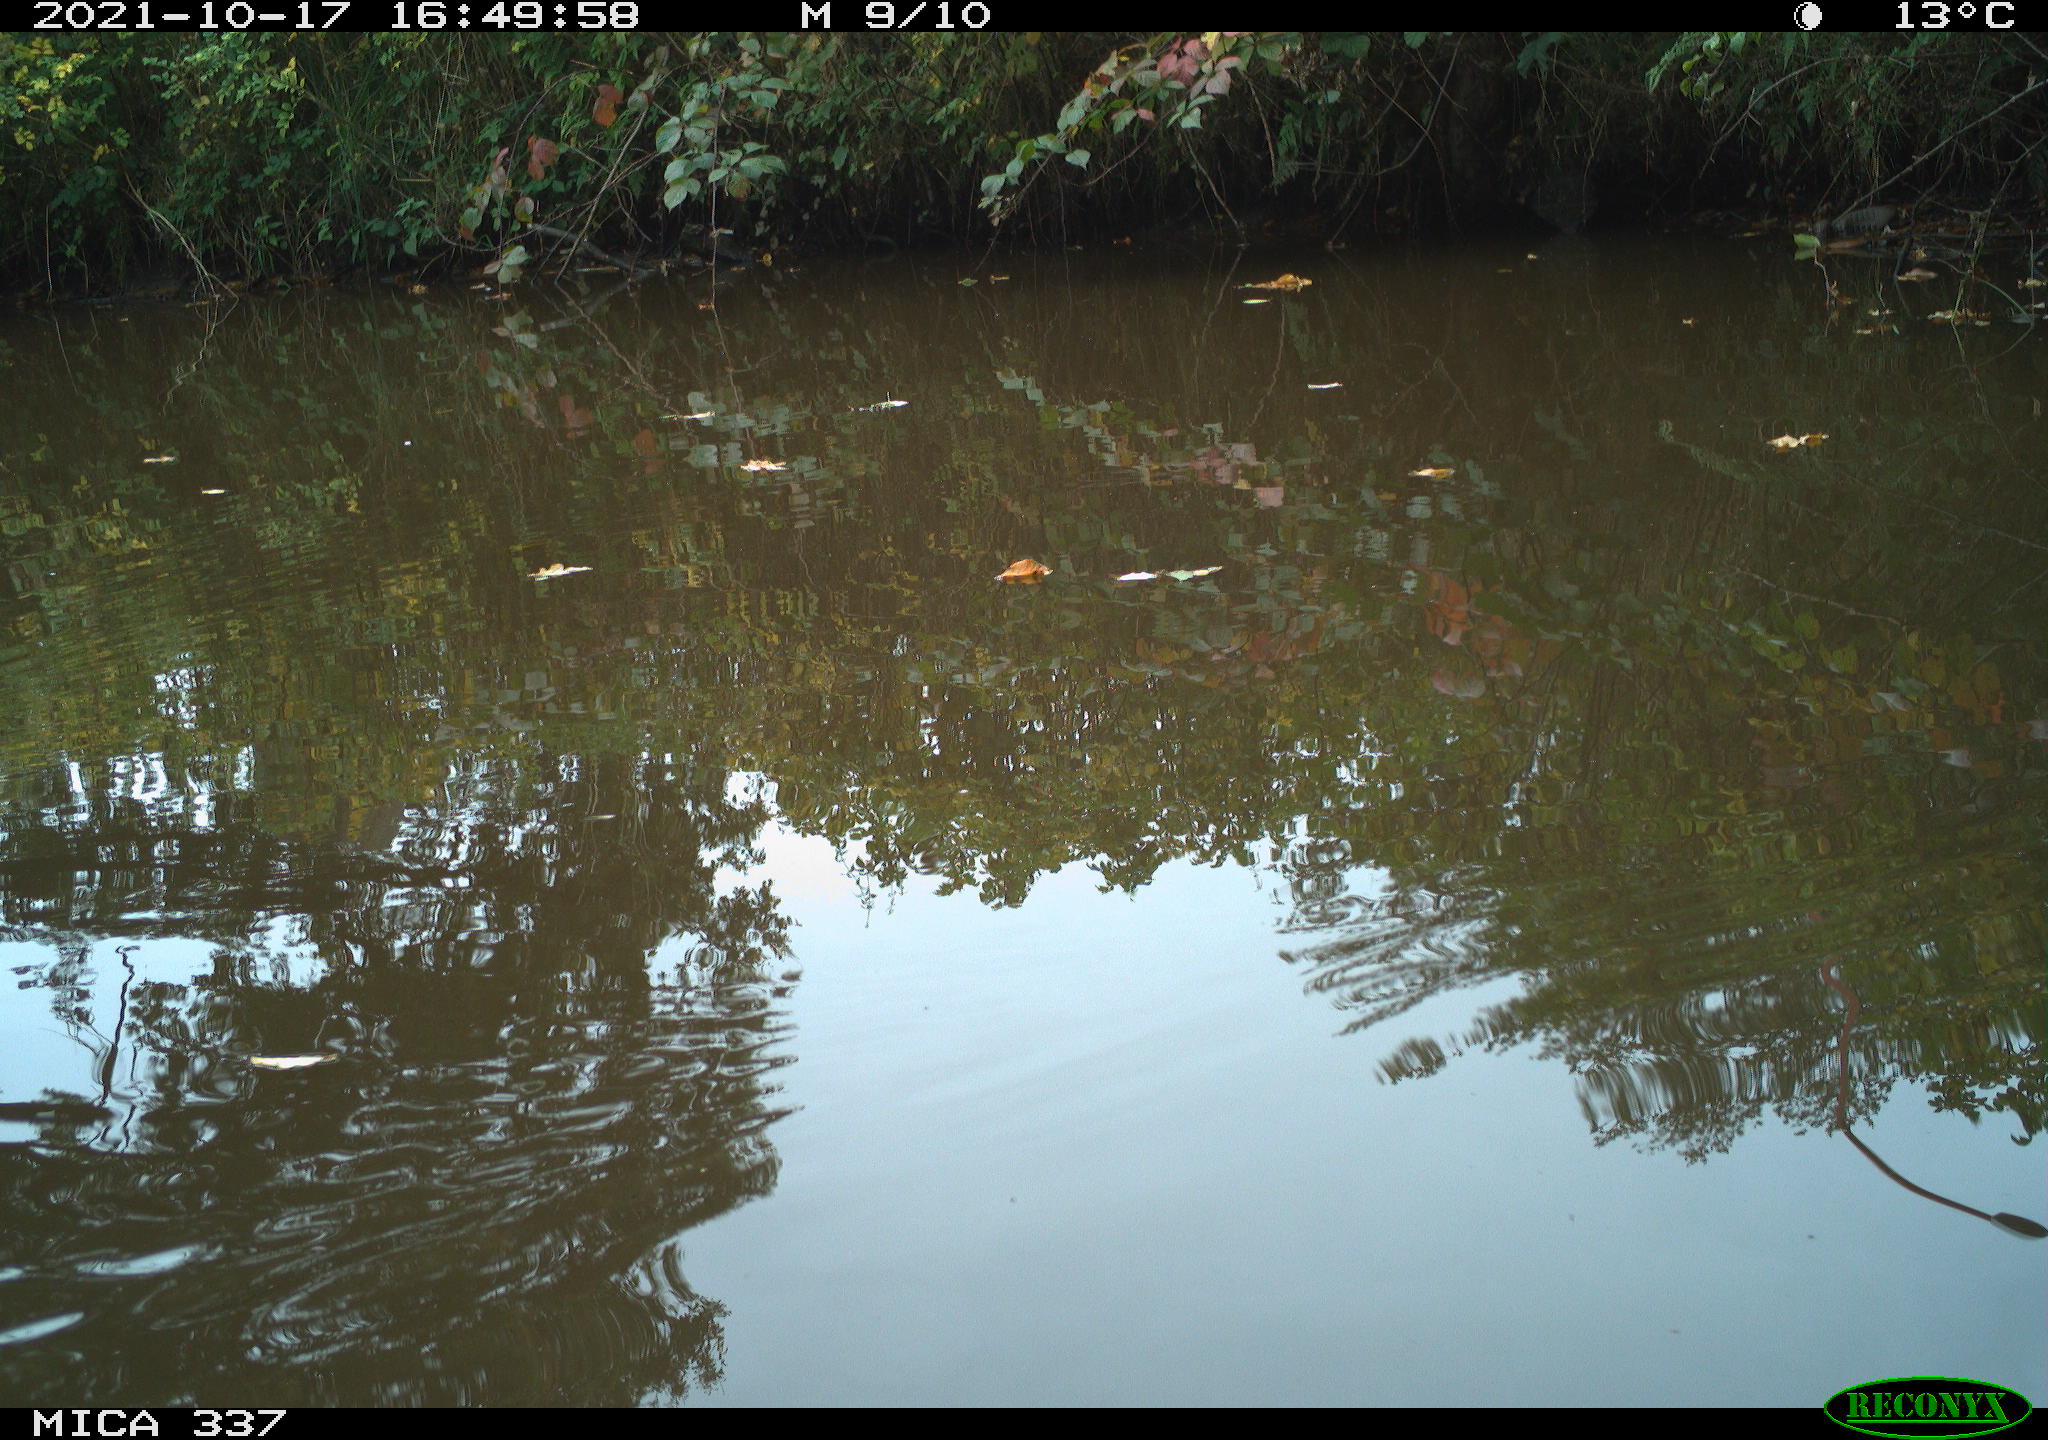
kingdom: Animalia
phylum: Chordata
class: Aves
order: Gruiformes
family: Rallidae
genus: Gallinula
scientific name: Gallinula chloropus
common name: Common moorhen
